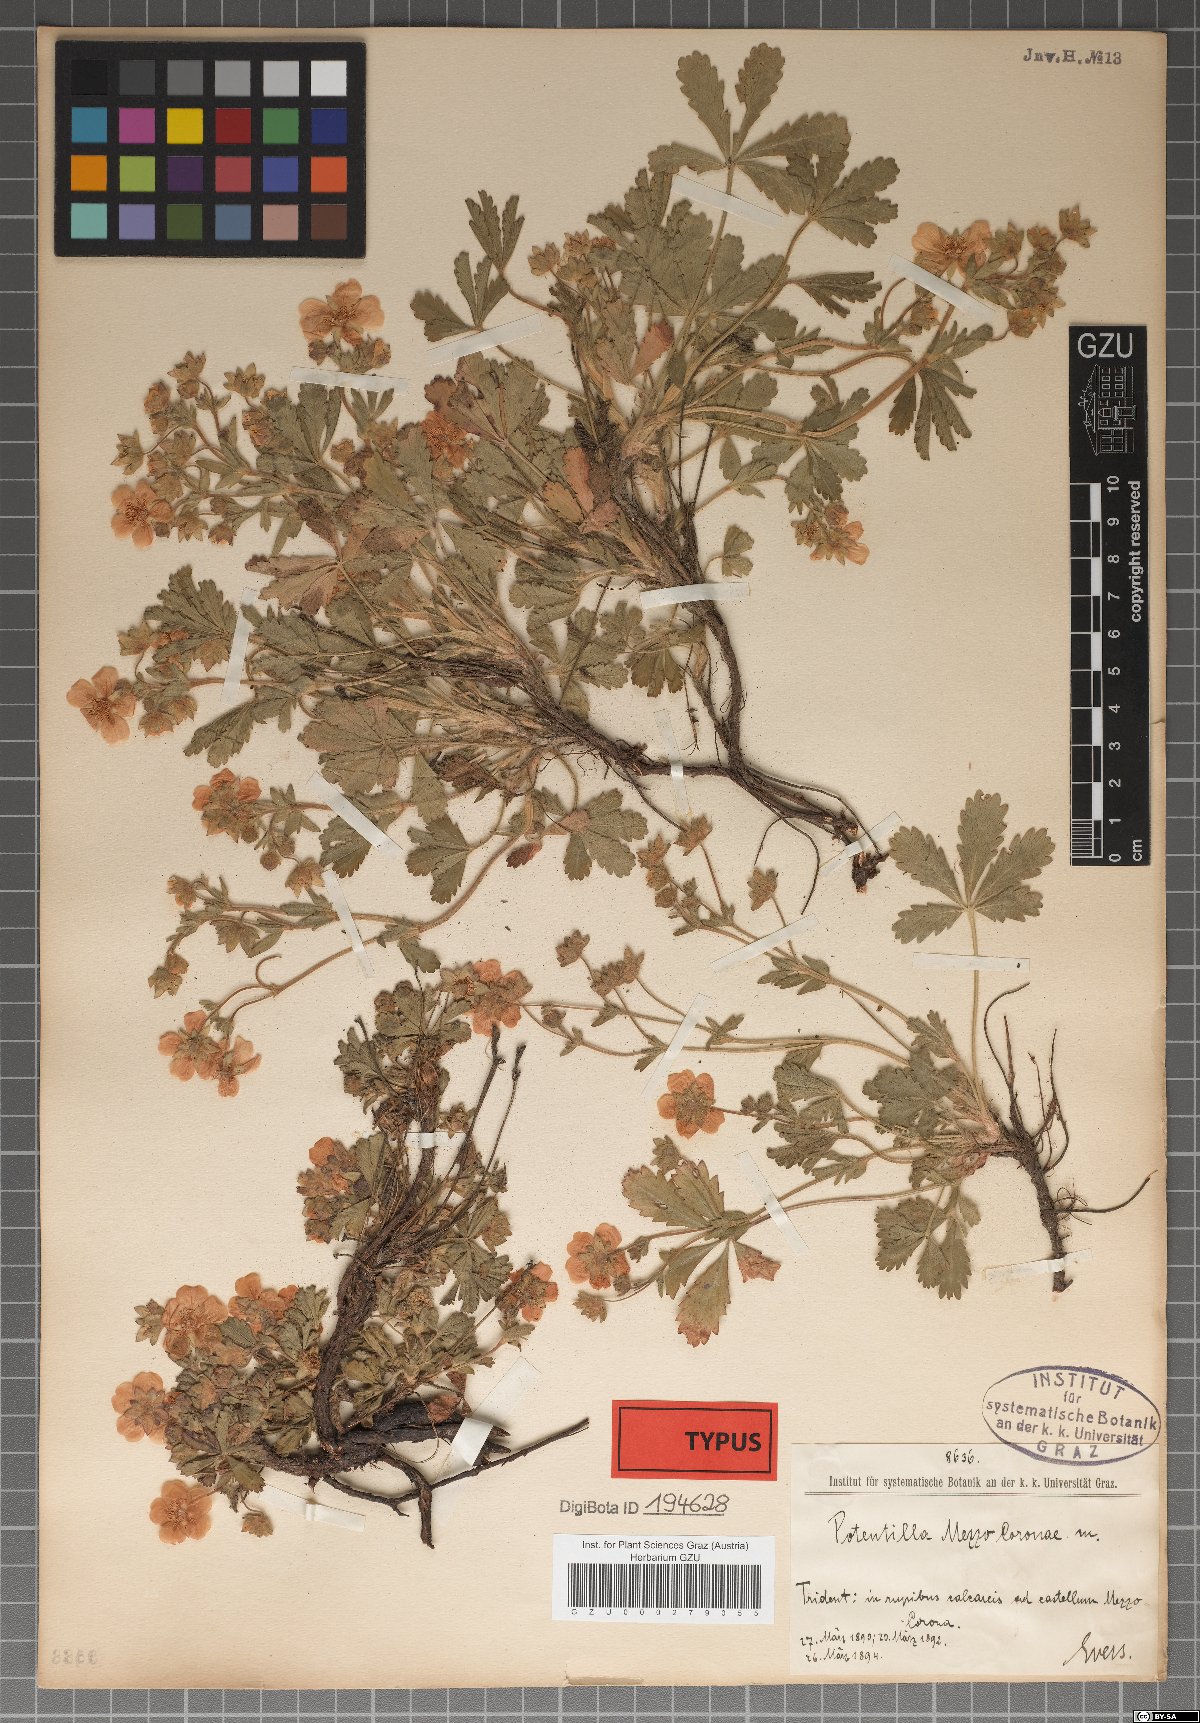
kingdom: Plantae
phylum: Tracheophyta
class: Magnoliopsida
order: Rosales
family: Rosaceae
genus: Potentilla
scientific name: Potentilla pusilla
